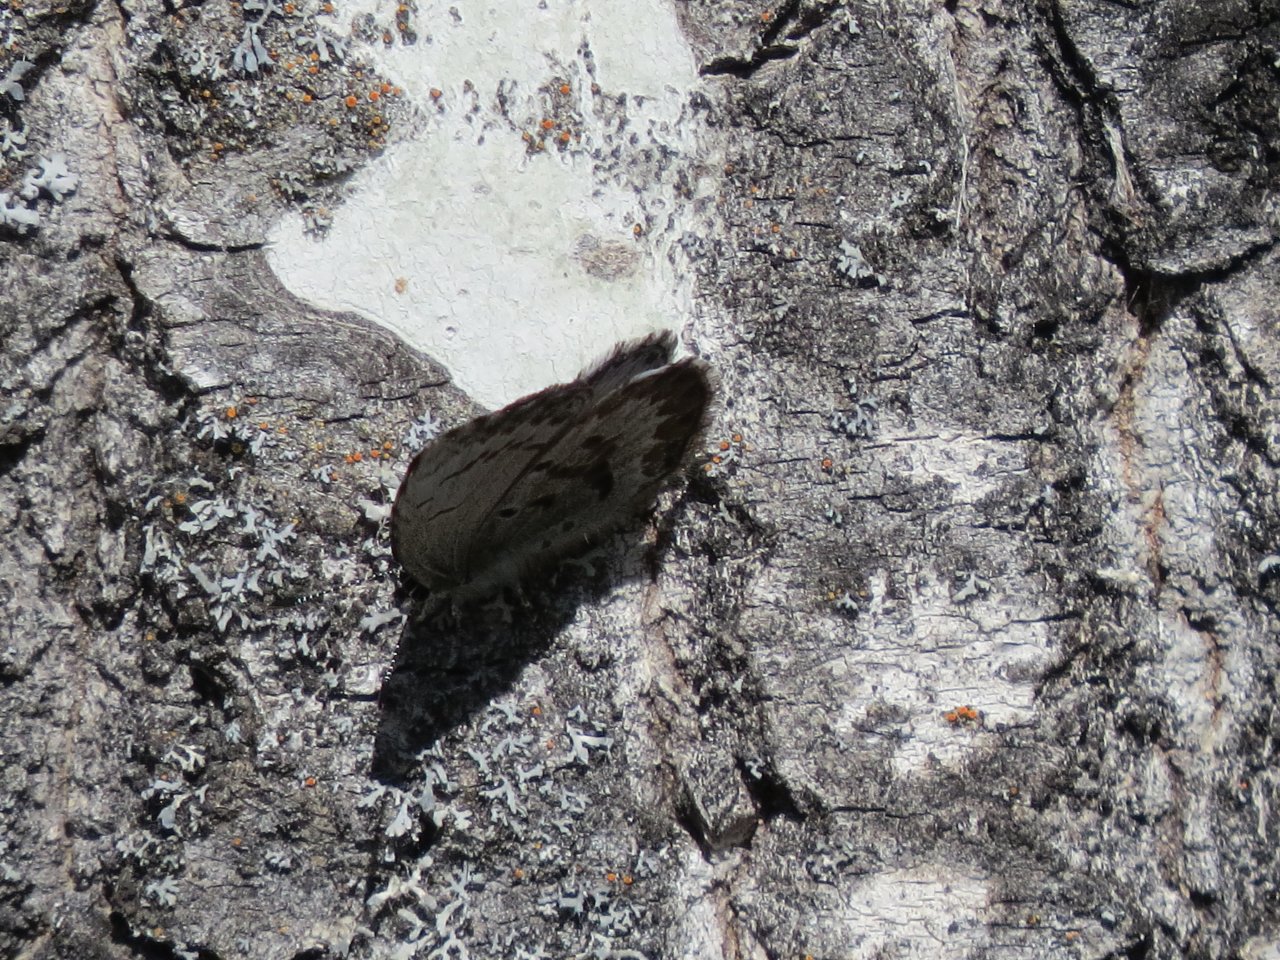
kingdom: Animalia
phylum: Arthropoda
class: Insecta
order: Lepidoptera
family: Lycaenidae
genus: Celastrina
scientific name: Celastrina lucia
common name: Northern Spring Azure
